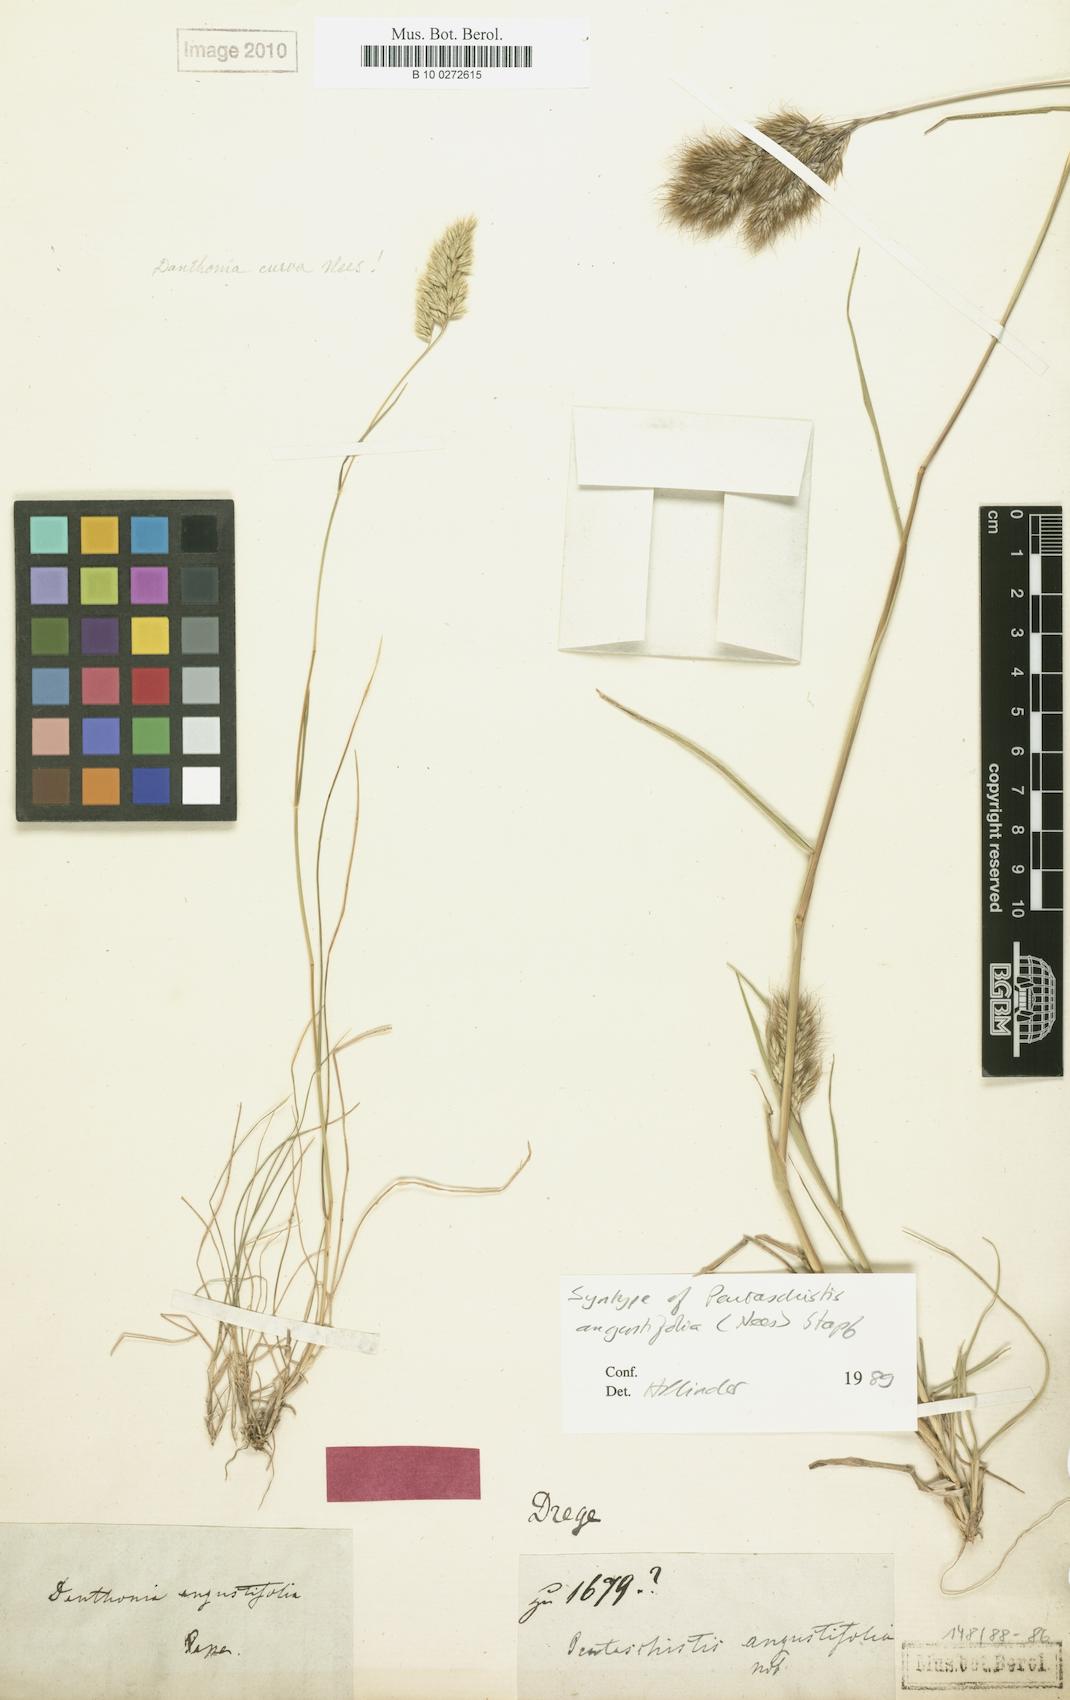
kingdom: Plantae
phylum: Tracheophyta
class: Liliopsida
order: Poales
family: Poaceae
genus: Pentameris
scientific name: Pentameris pallida
